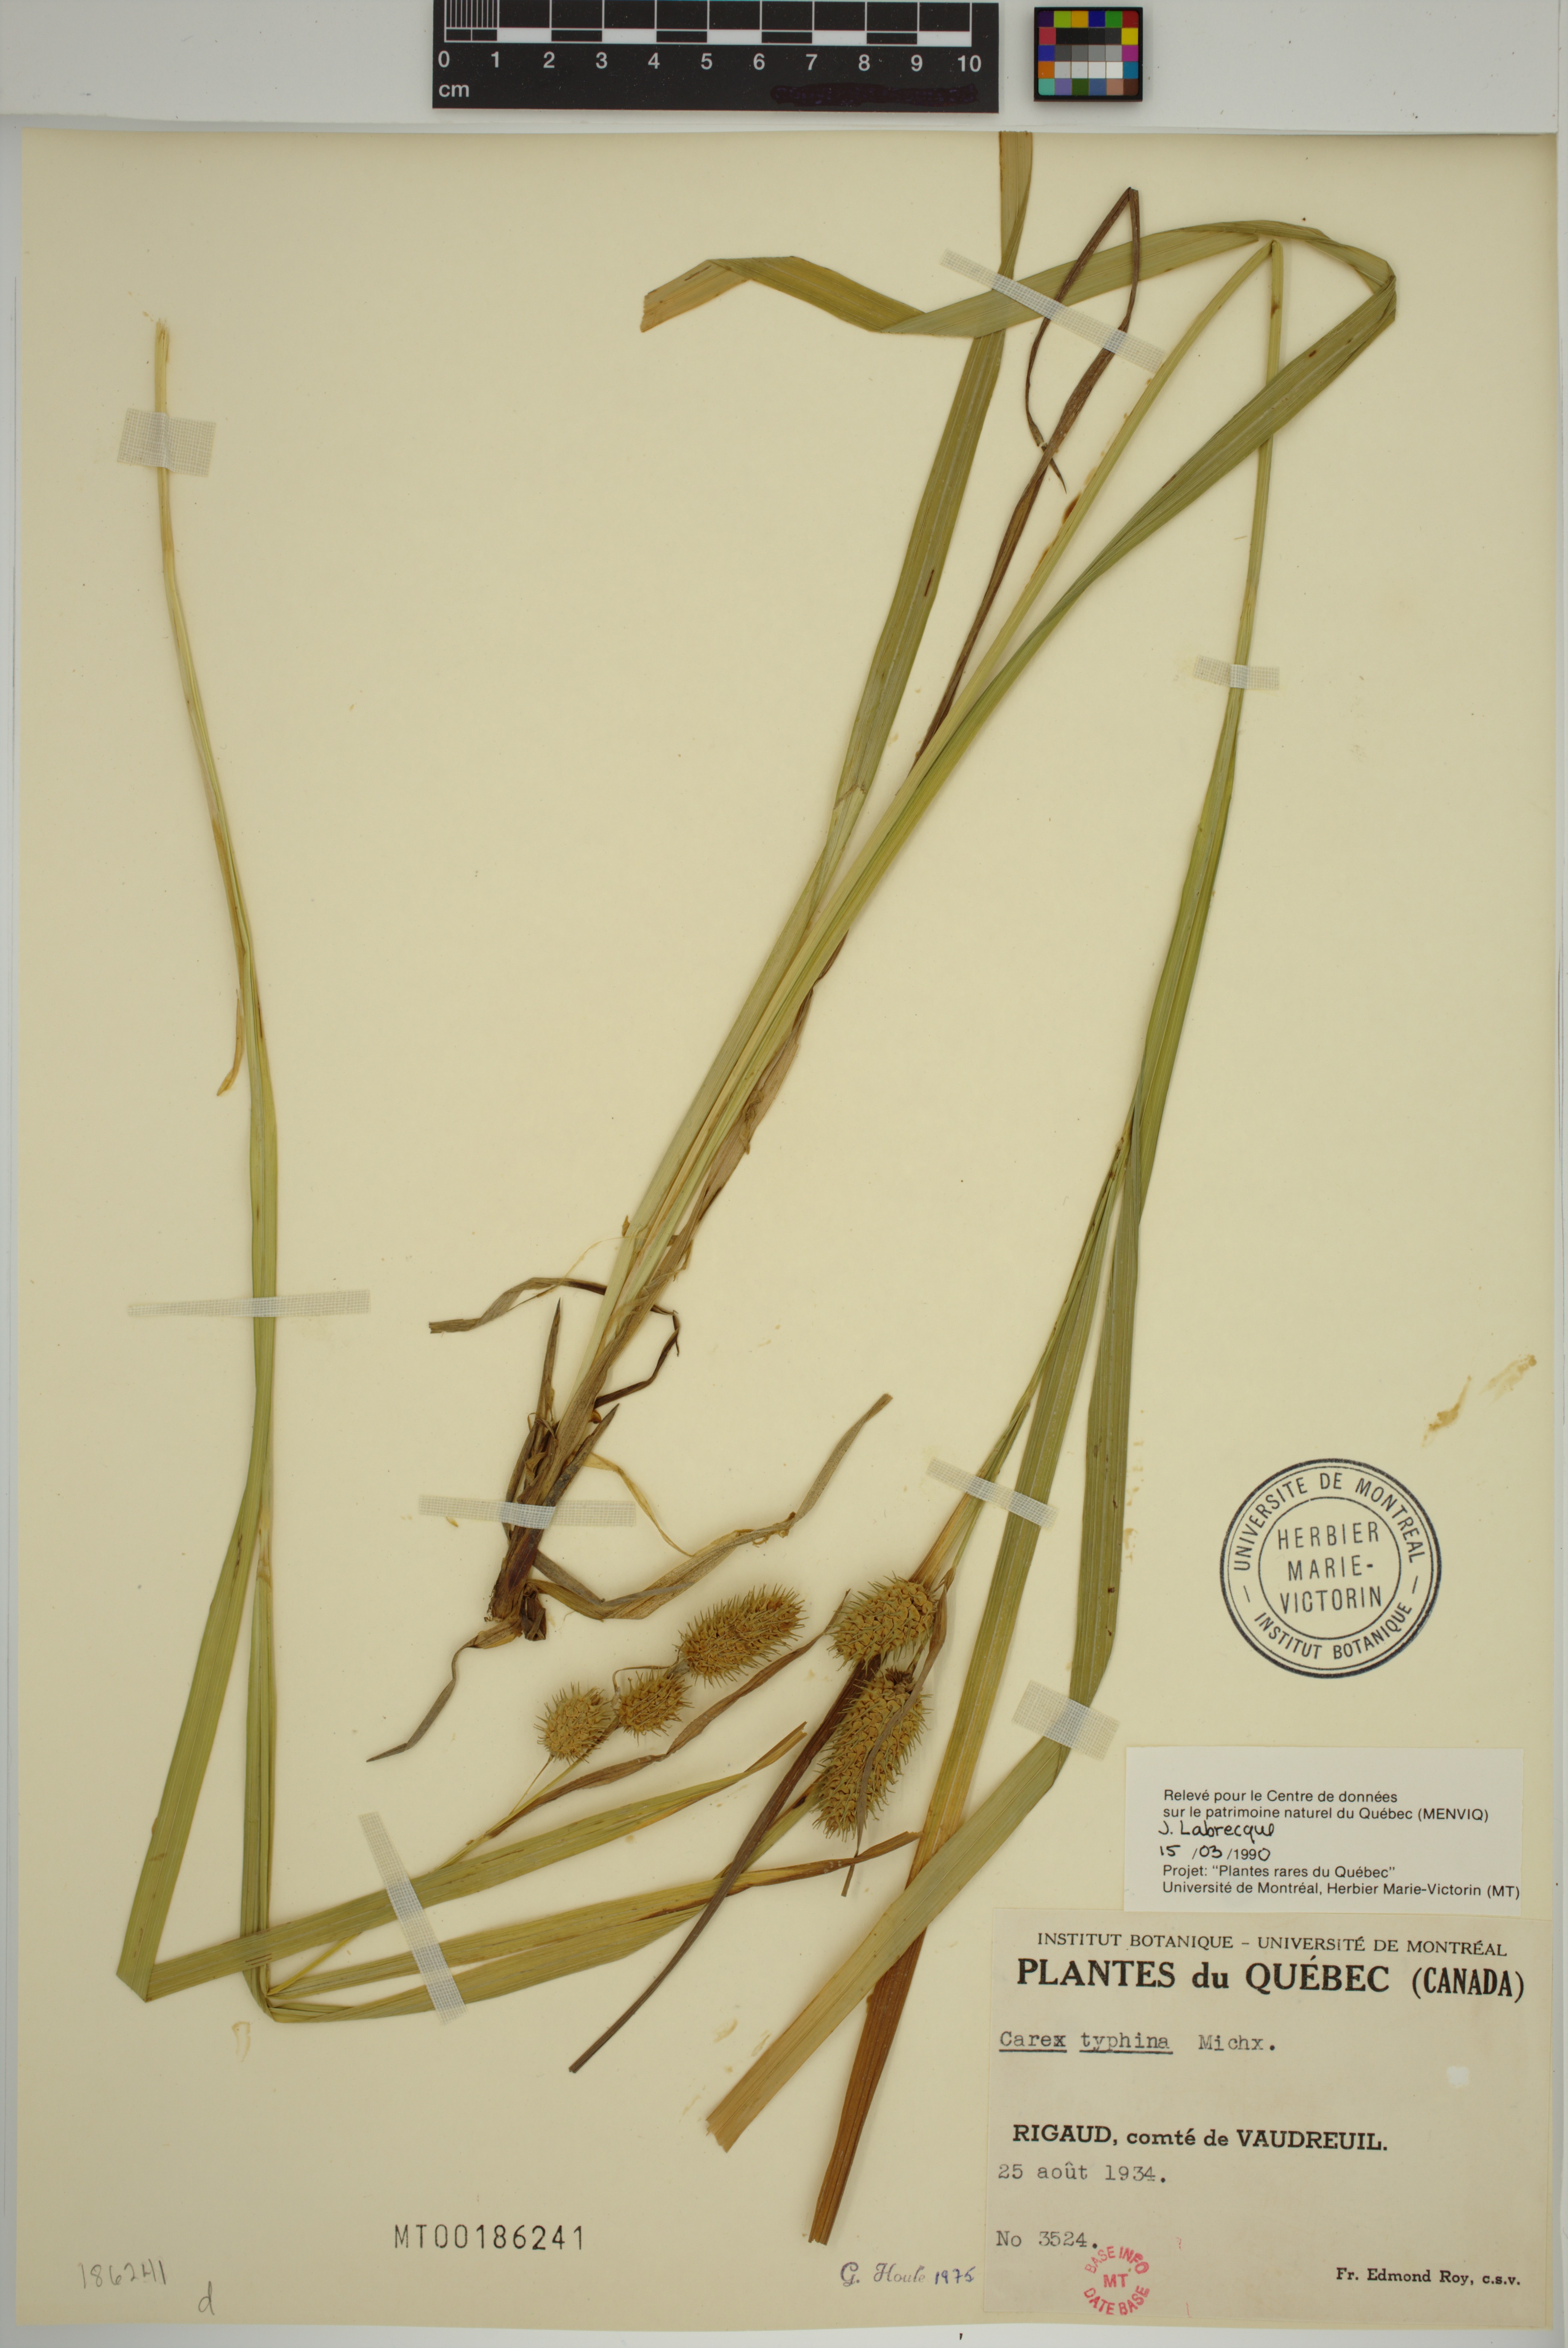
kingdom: Plantae
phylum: Tracheophyta
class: Liliopsida
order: Poales
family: Cyperaceae
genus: Carex
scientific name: Carex typhina
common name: Cattail sedge
